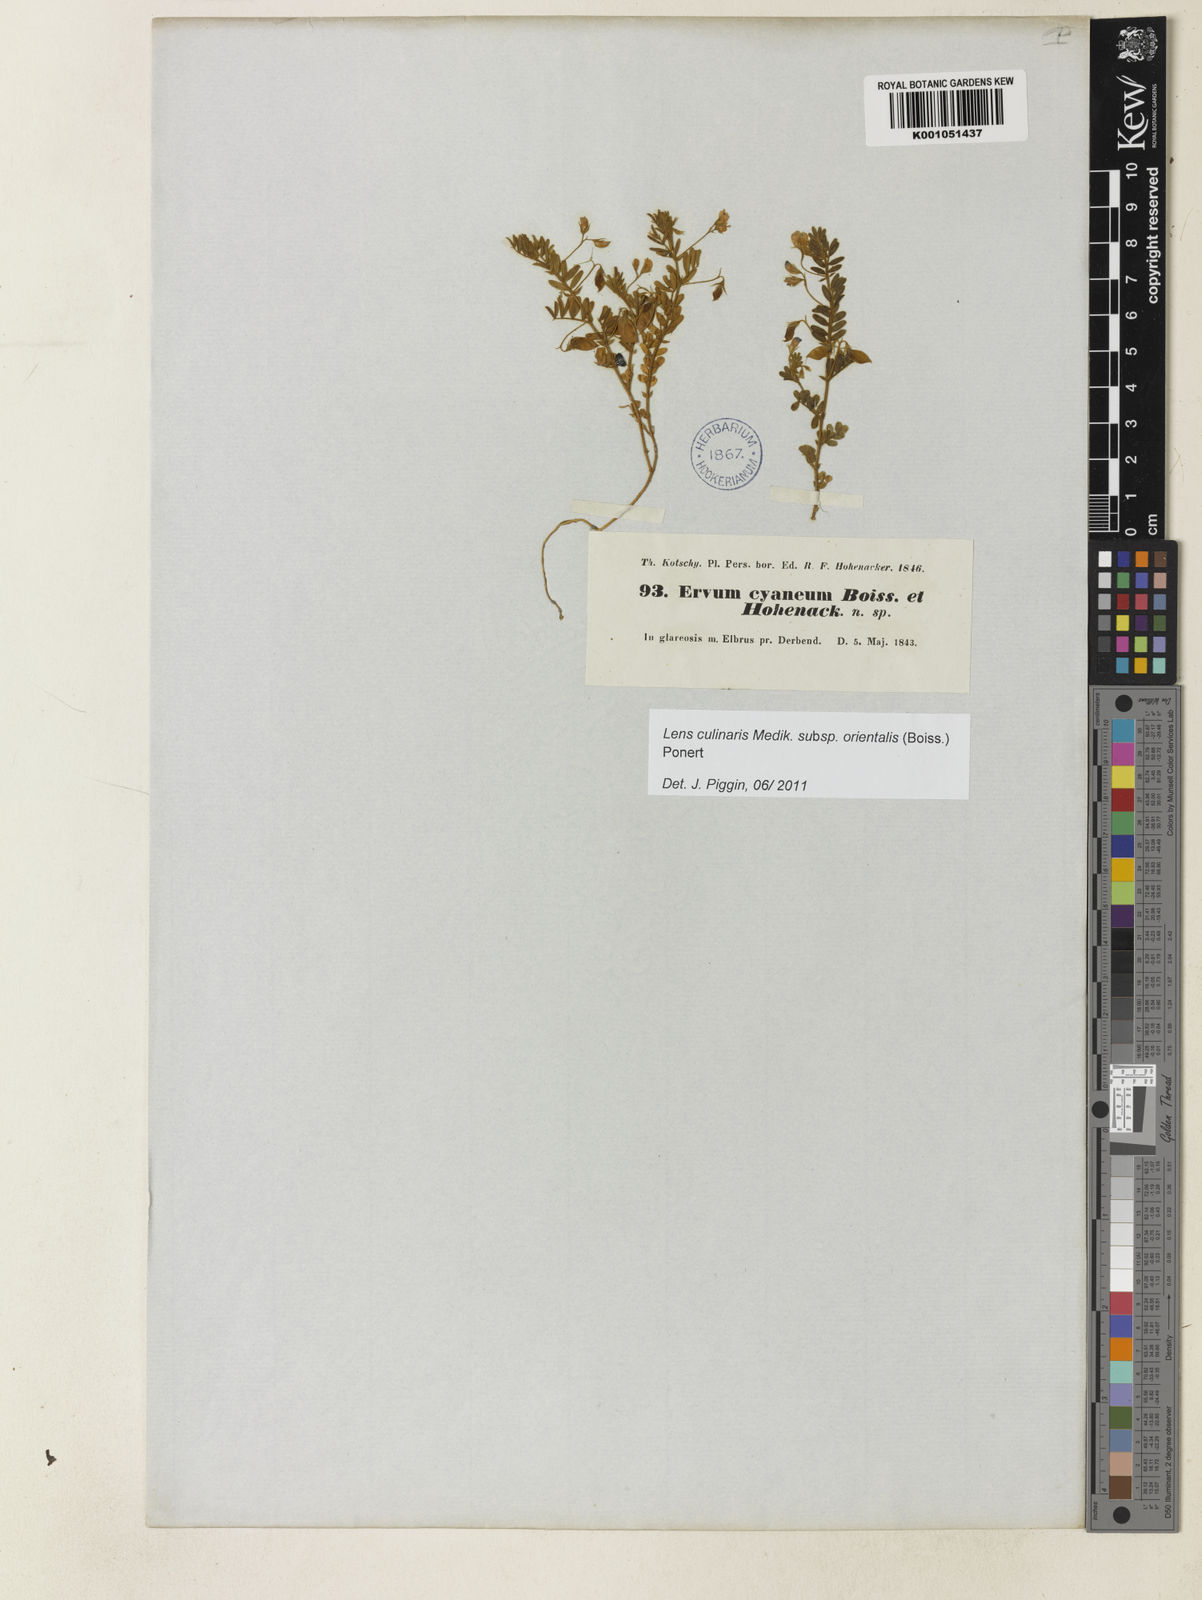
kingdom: Plantae
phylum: Tracheophyta
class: Magnoliopsida
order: Fabales
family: Fabaceae
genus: Vicia
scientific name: Vicia orientalis
